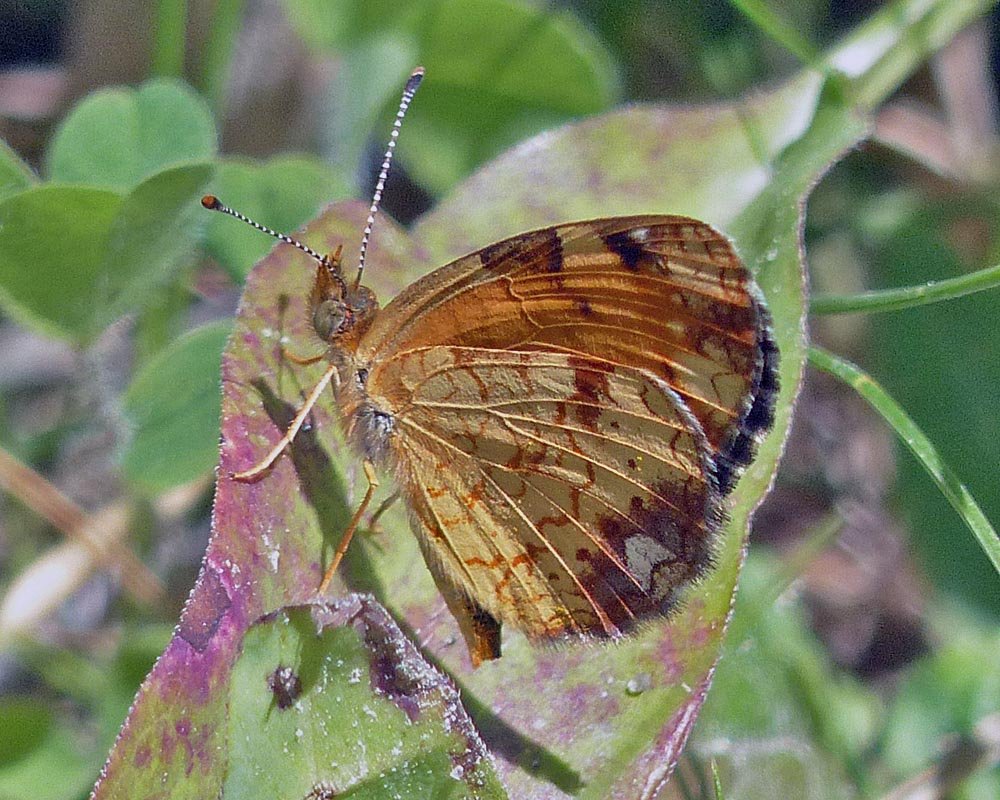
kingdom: Animalia
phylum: Arthropoda
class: Insecta
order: Lepidoptera
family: Nymphalidae
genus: Phyciodes
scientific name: Phyciodes tharos
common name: Northern Crescent
